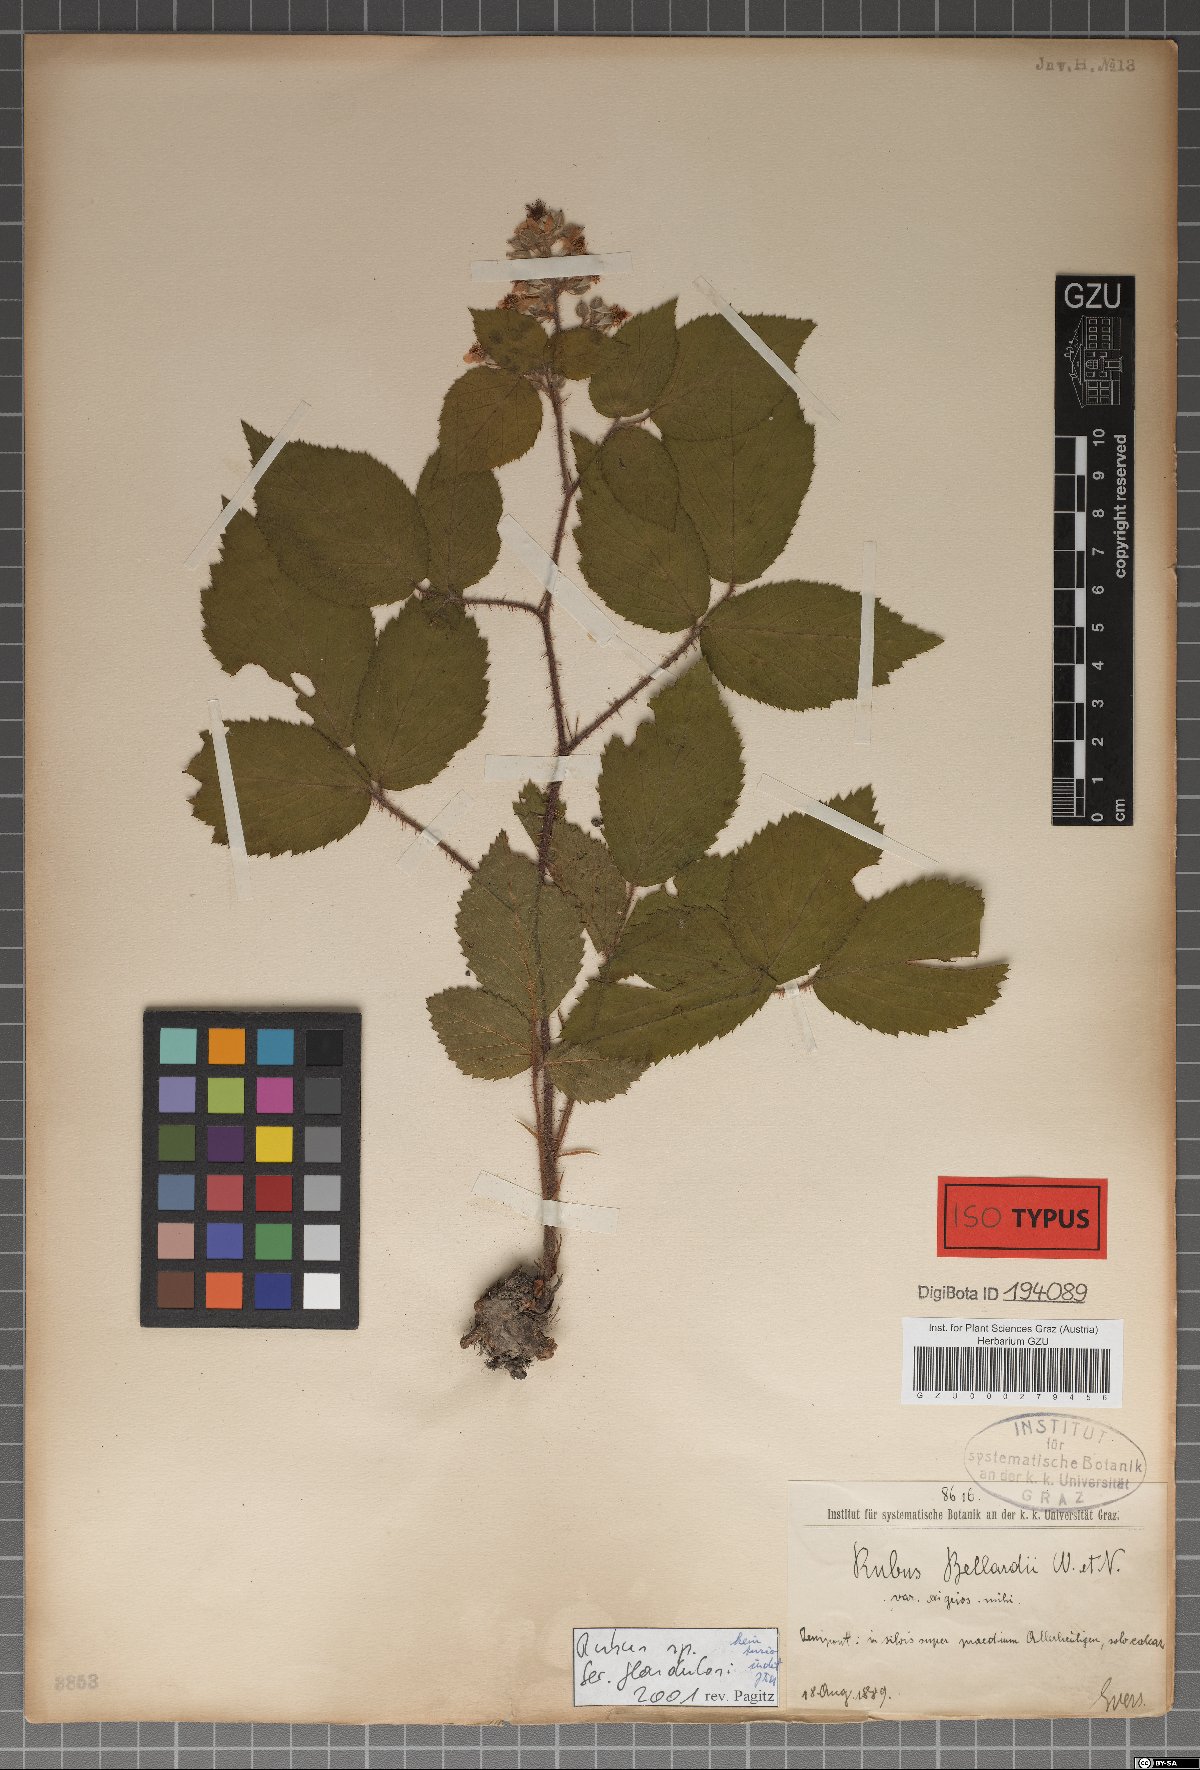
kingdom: Plantae
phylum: Tracheophyta
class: Magnoliopsida
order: Rosales
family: Rosaceae
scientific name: Rosaceae
